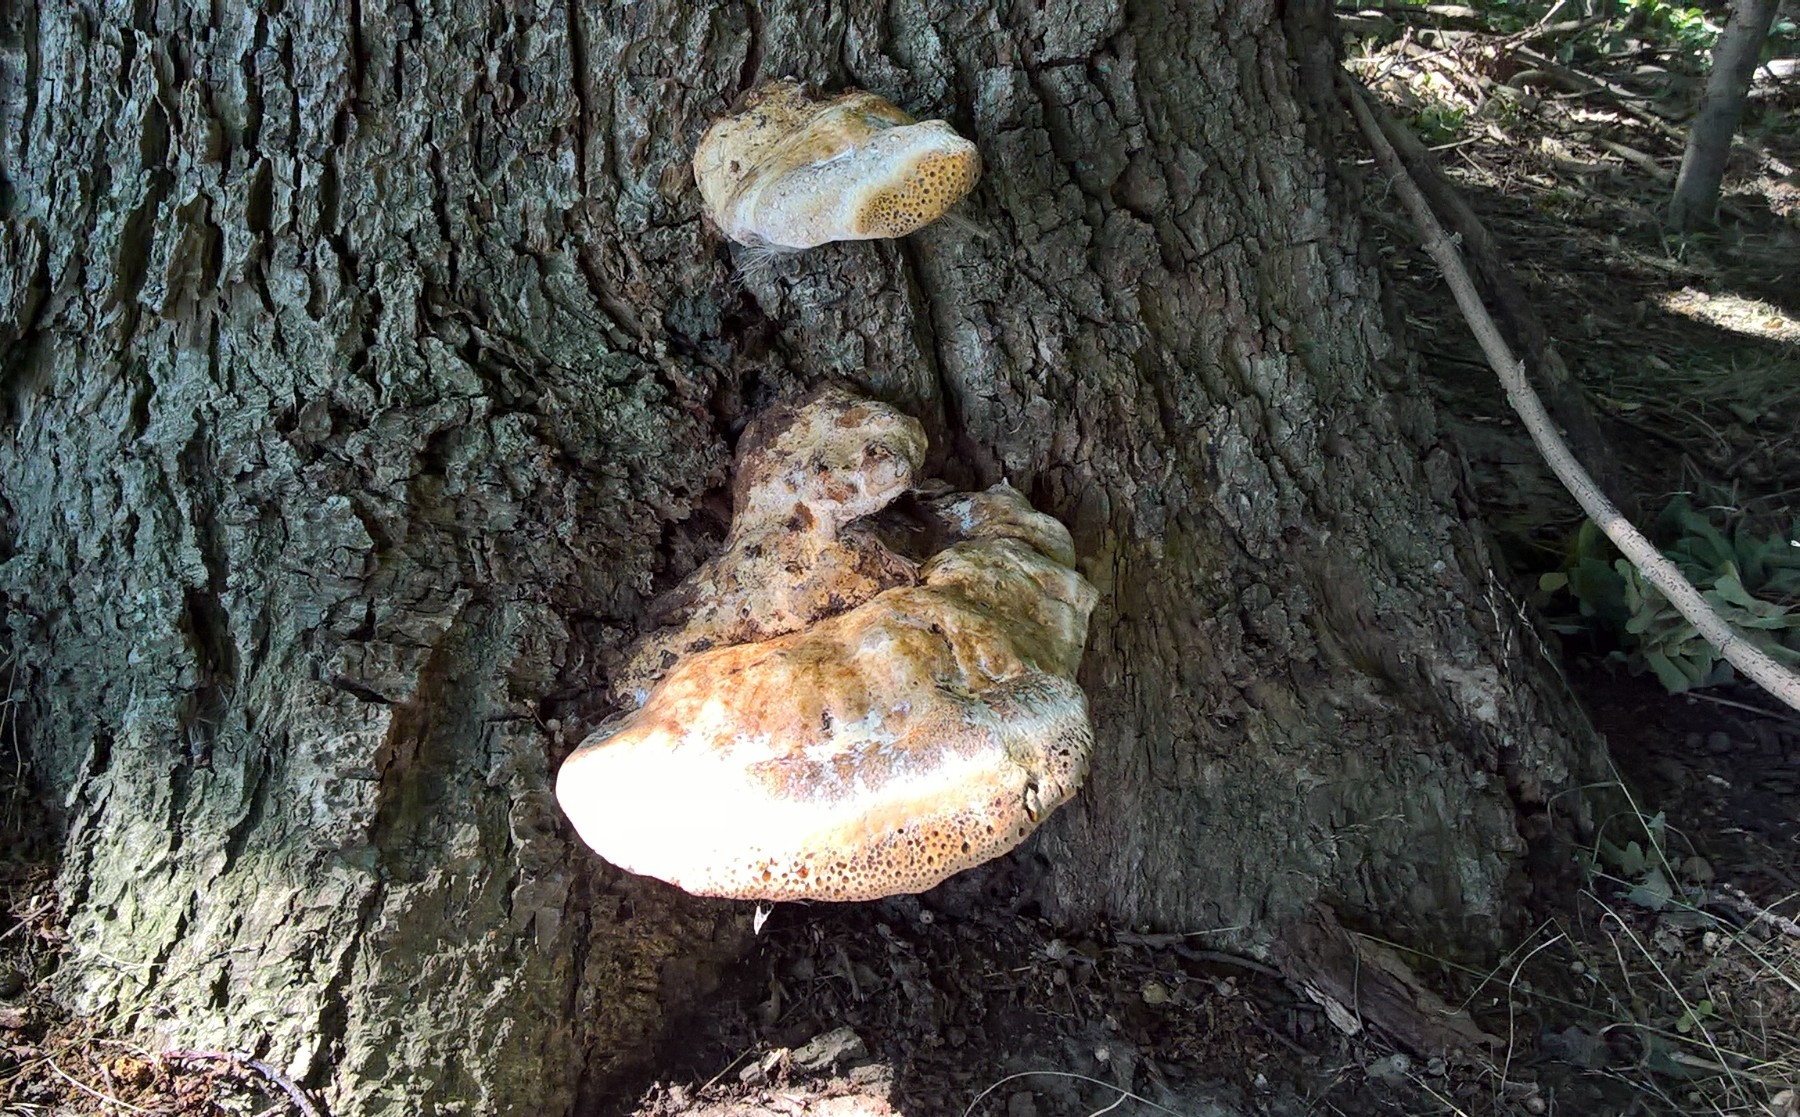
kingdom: Fungi
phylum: Basidiomycota
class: Agaricomycetes
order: Hymenochaetales
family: Hymenochaetaceae
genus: Pseudoinonotus
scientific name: Pseudoinonotus dryadeus
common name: ege-spejlporesvamp
